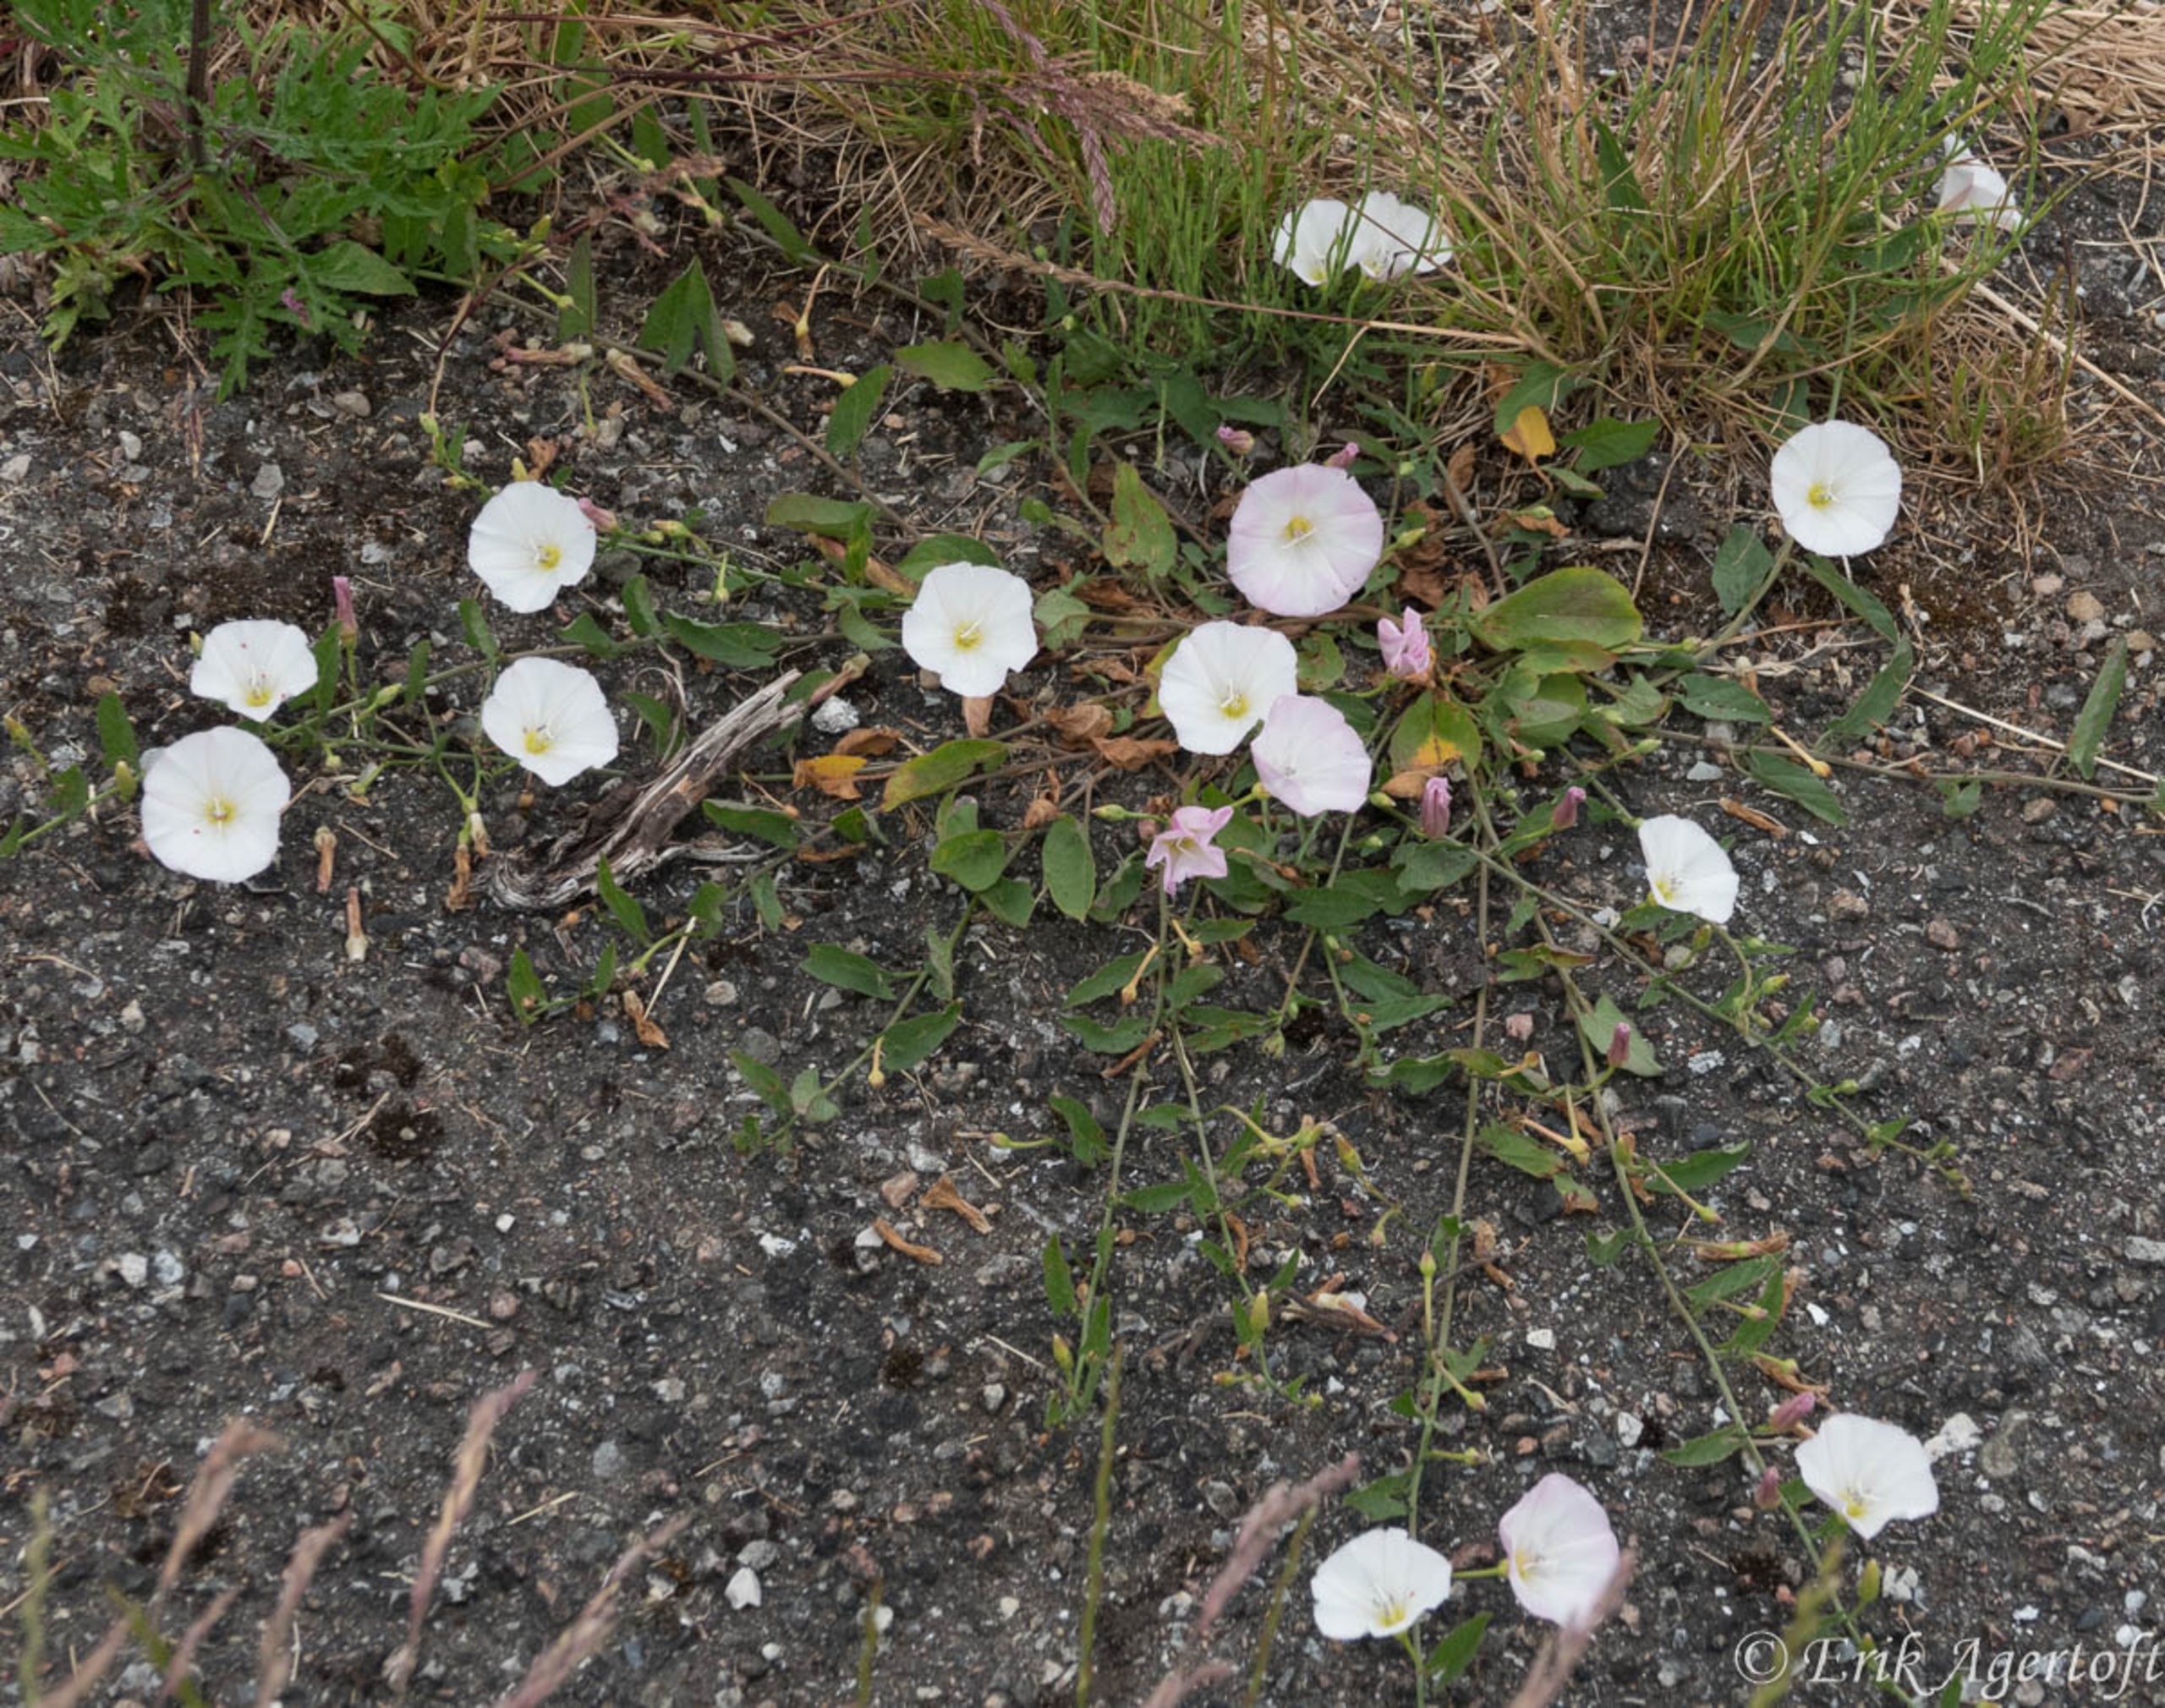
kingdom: Plantae
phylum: Tracheophyta
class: Magnoliopsida
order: Solanales
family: Convolvulaceae
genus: Convolvulus
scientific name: Convolvulus arvensis
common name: Ager-snerle
